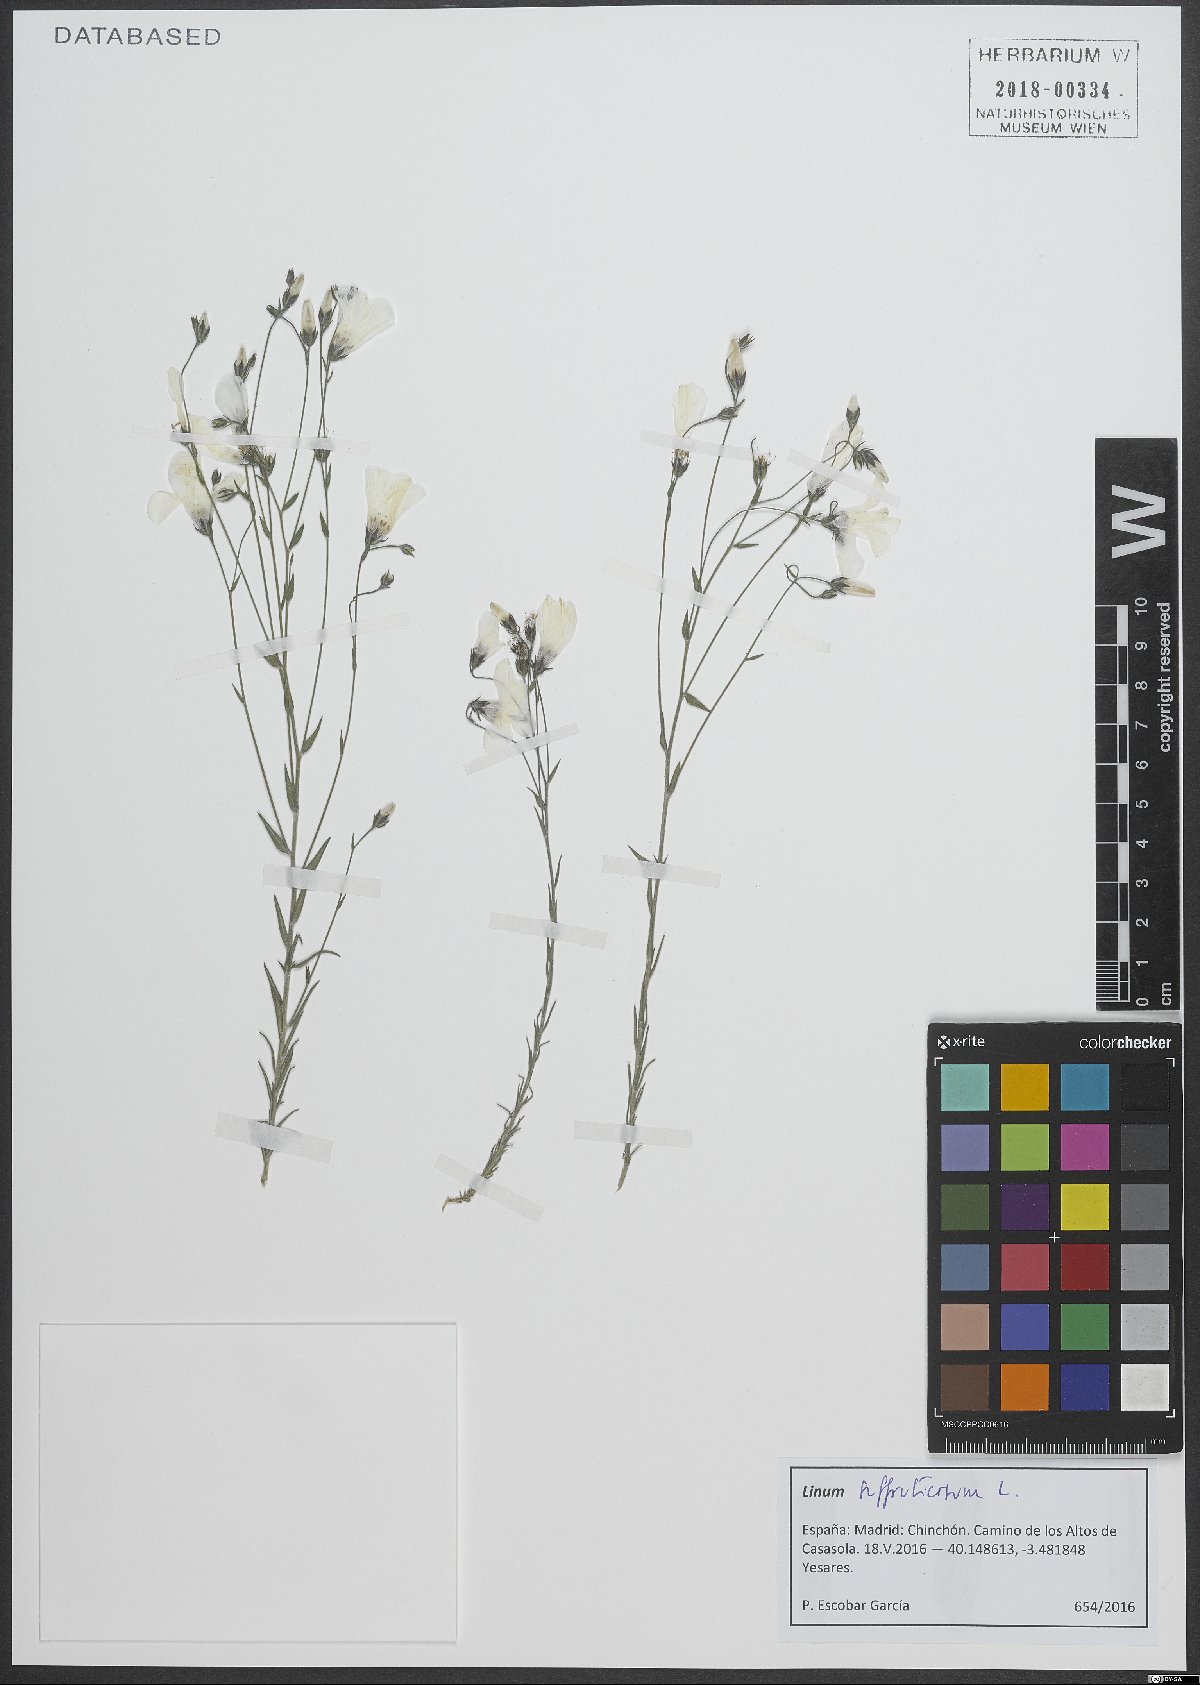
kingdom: Plantae
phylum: Tracheophyta
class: Magnoliopsida
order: Malpighiales
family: Linaceae
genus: Linum
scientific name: Linum suffruticosum
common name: White flax
